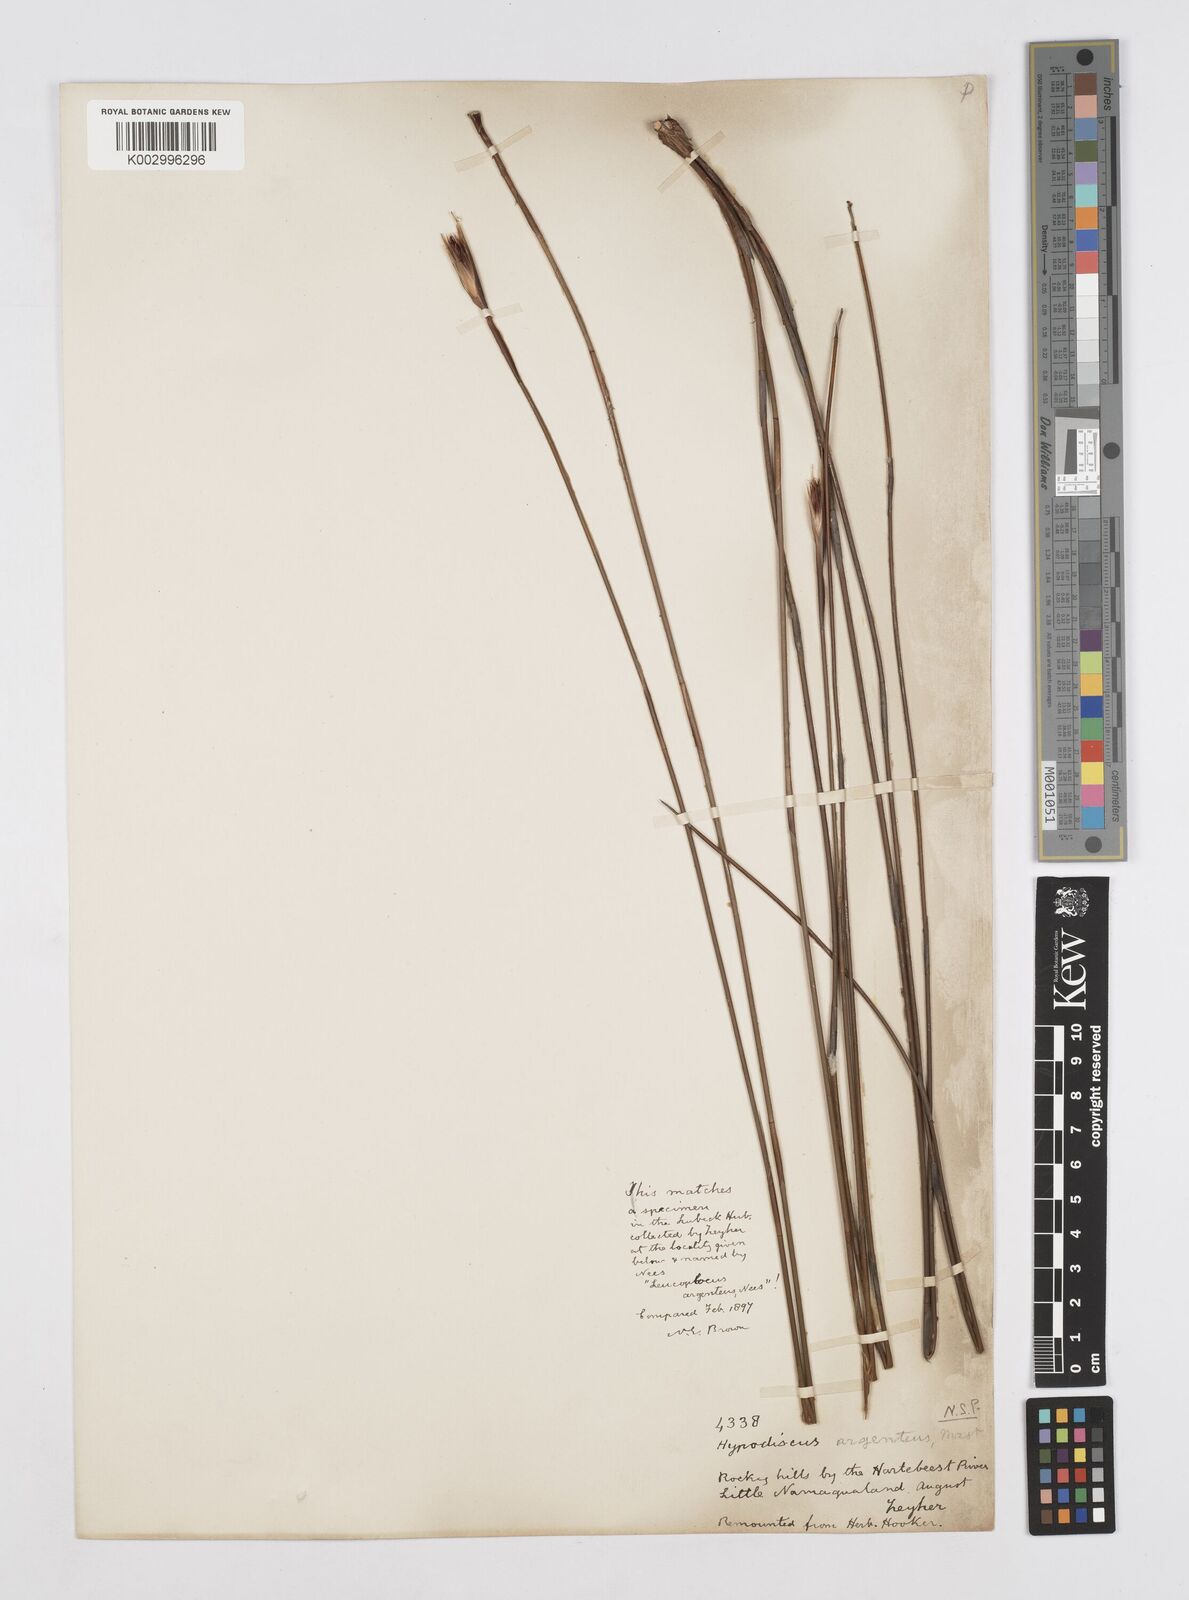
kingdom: Plantae
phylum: Tracheophyta
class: Liliopsida
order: Poales
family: Restionaceae
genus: Hypodiscus
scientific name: Hypodiscus argenteus
